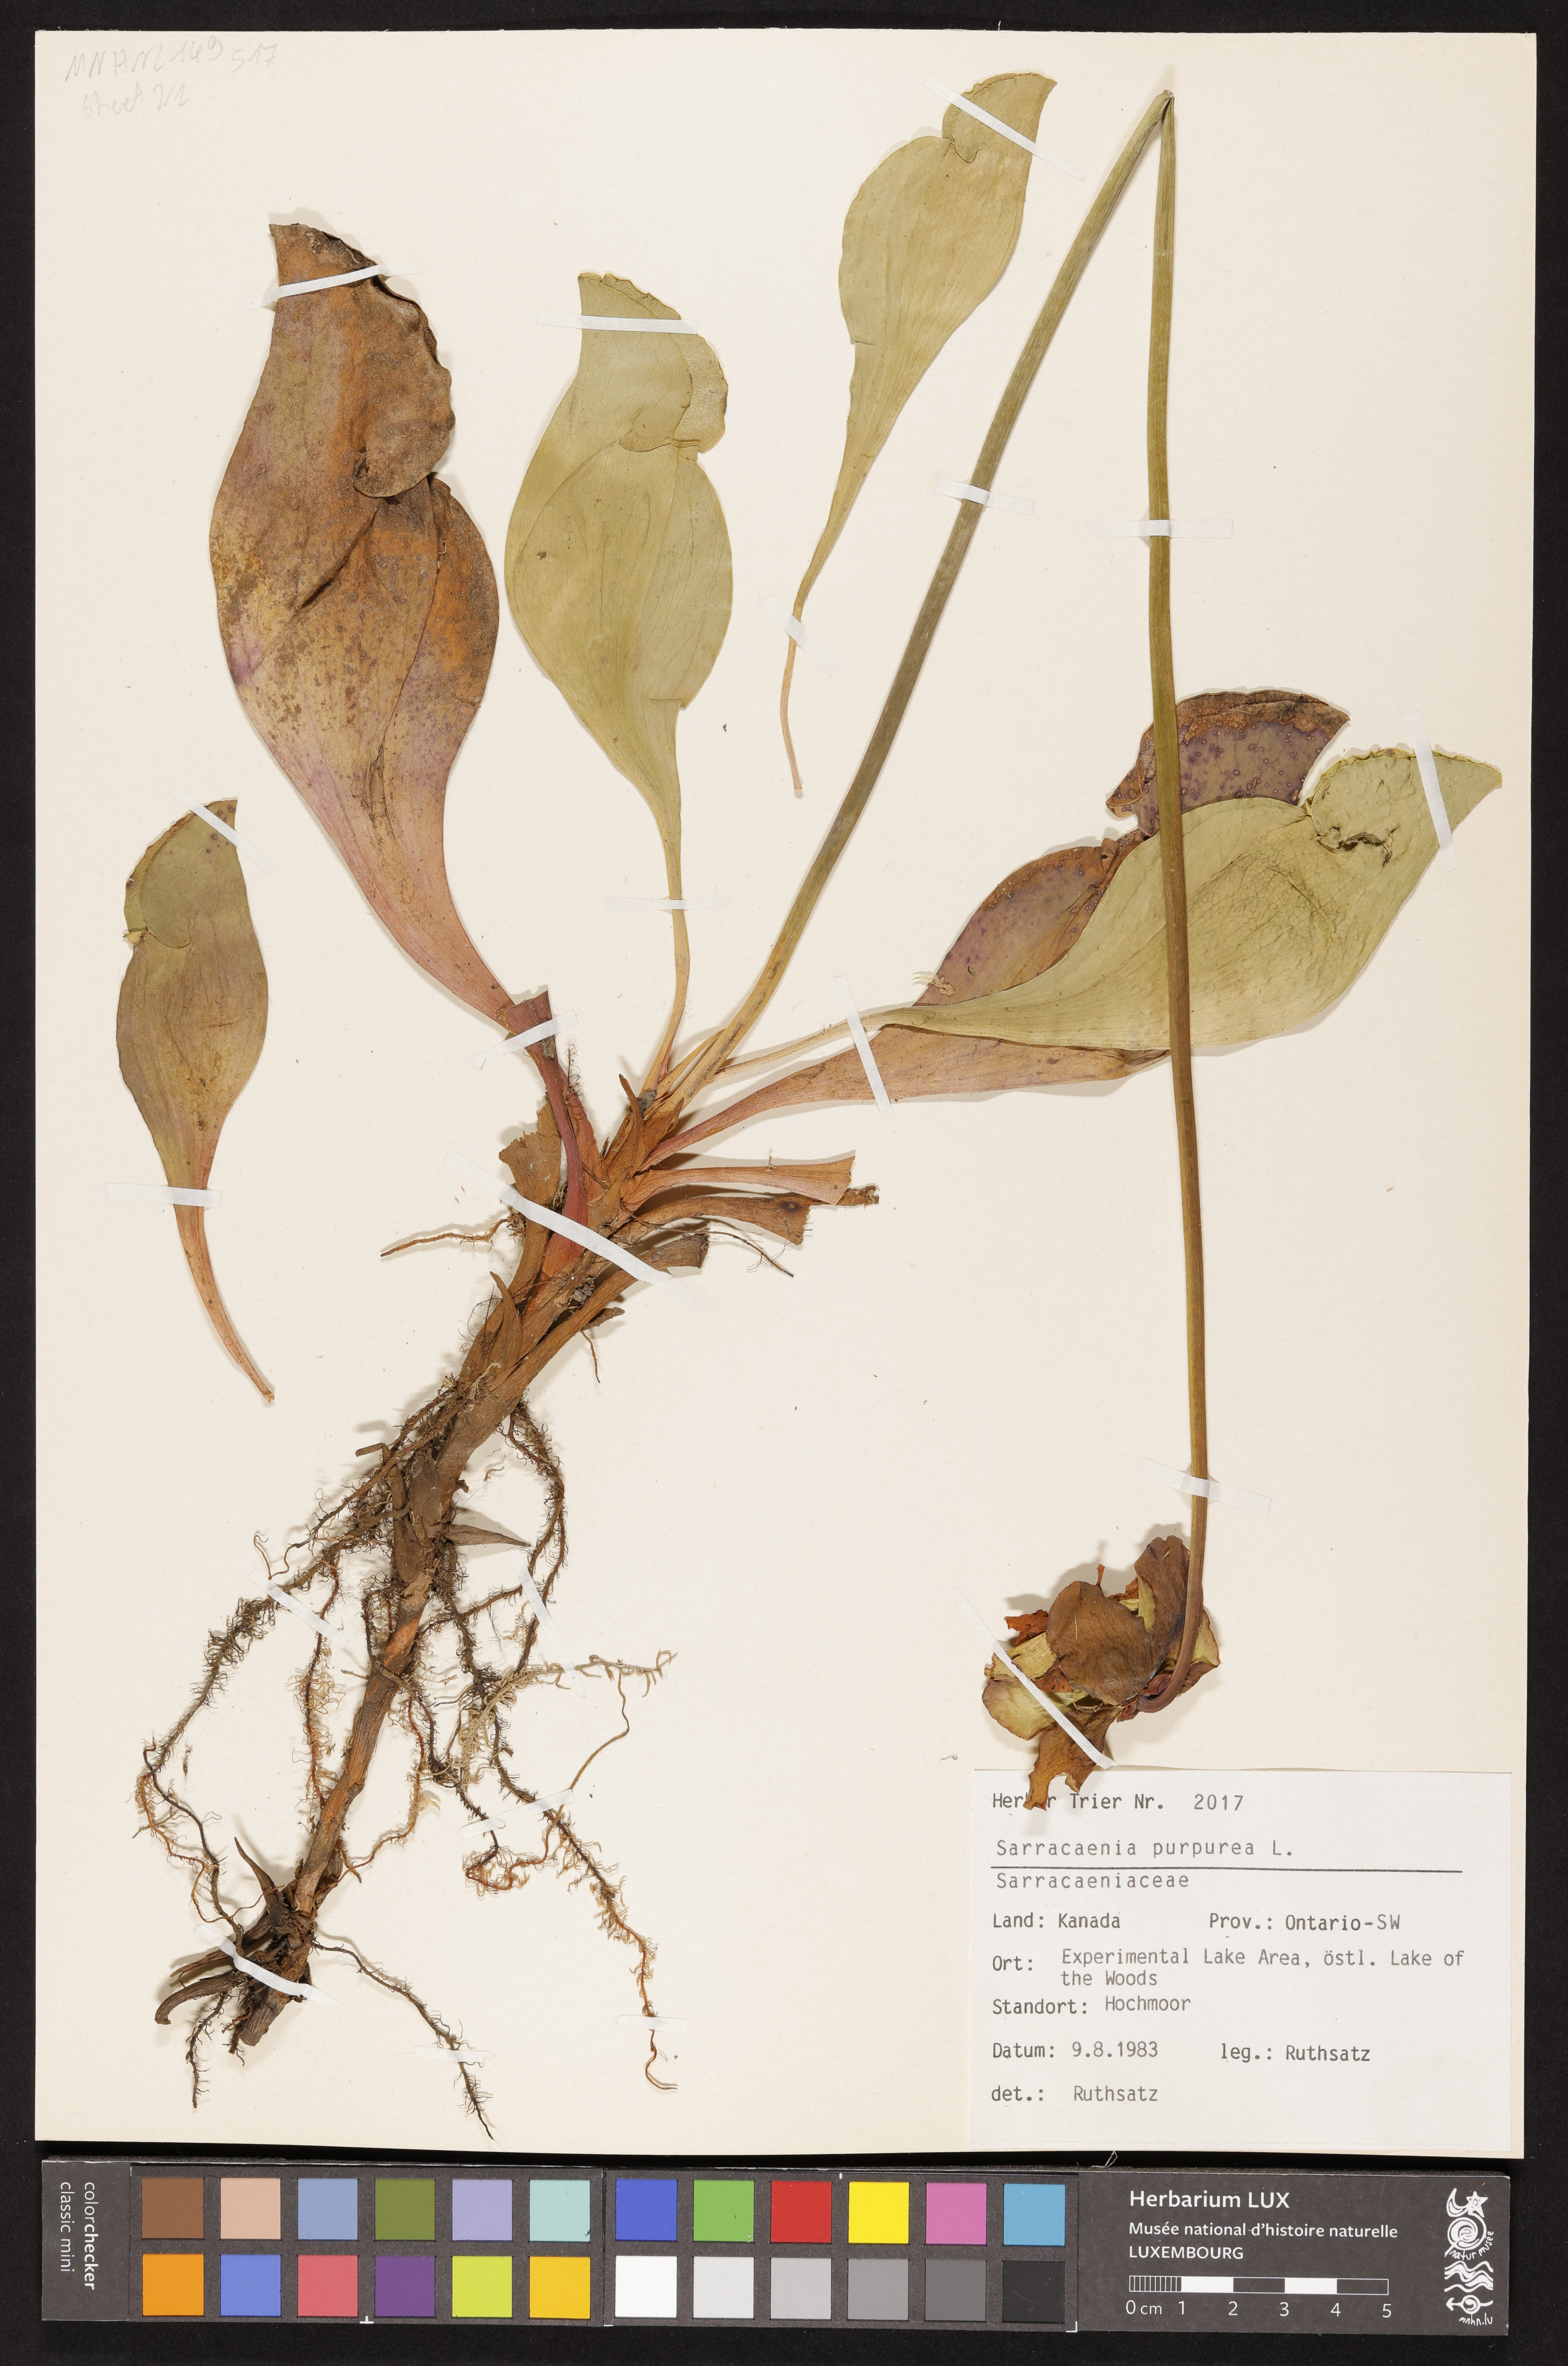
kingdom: Plantae
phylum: Tracheophyta
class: Magnoliopsida
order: Ericales
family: Sarraceniaceae
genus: Sarracenia
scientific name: Sarracenia purpurea
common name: Pitcherplant
